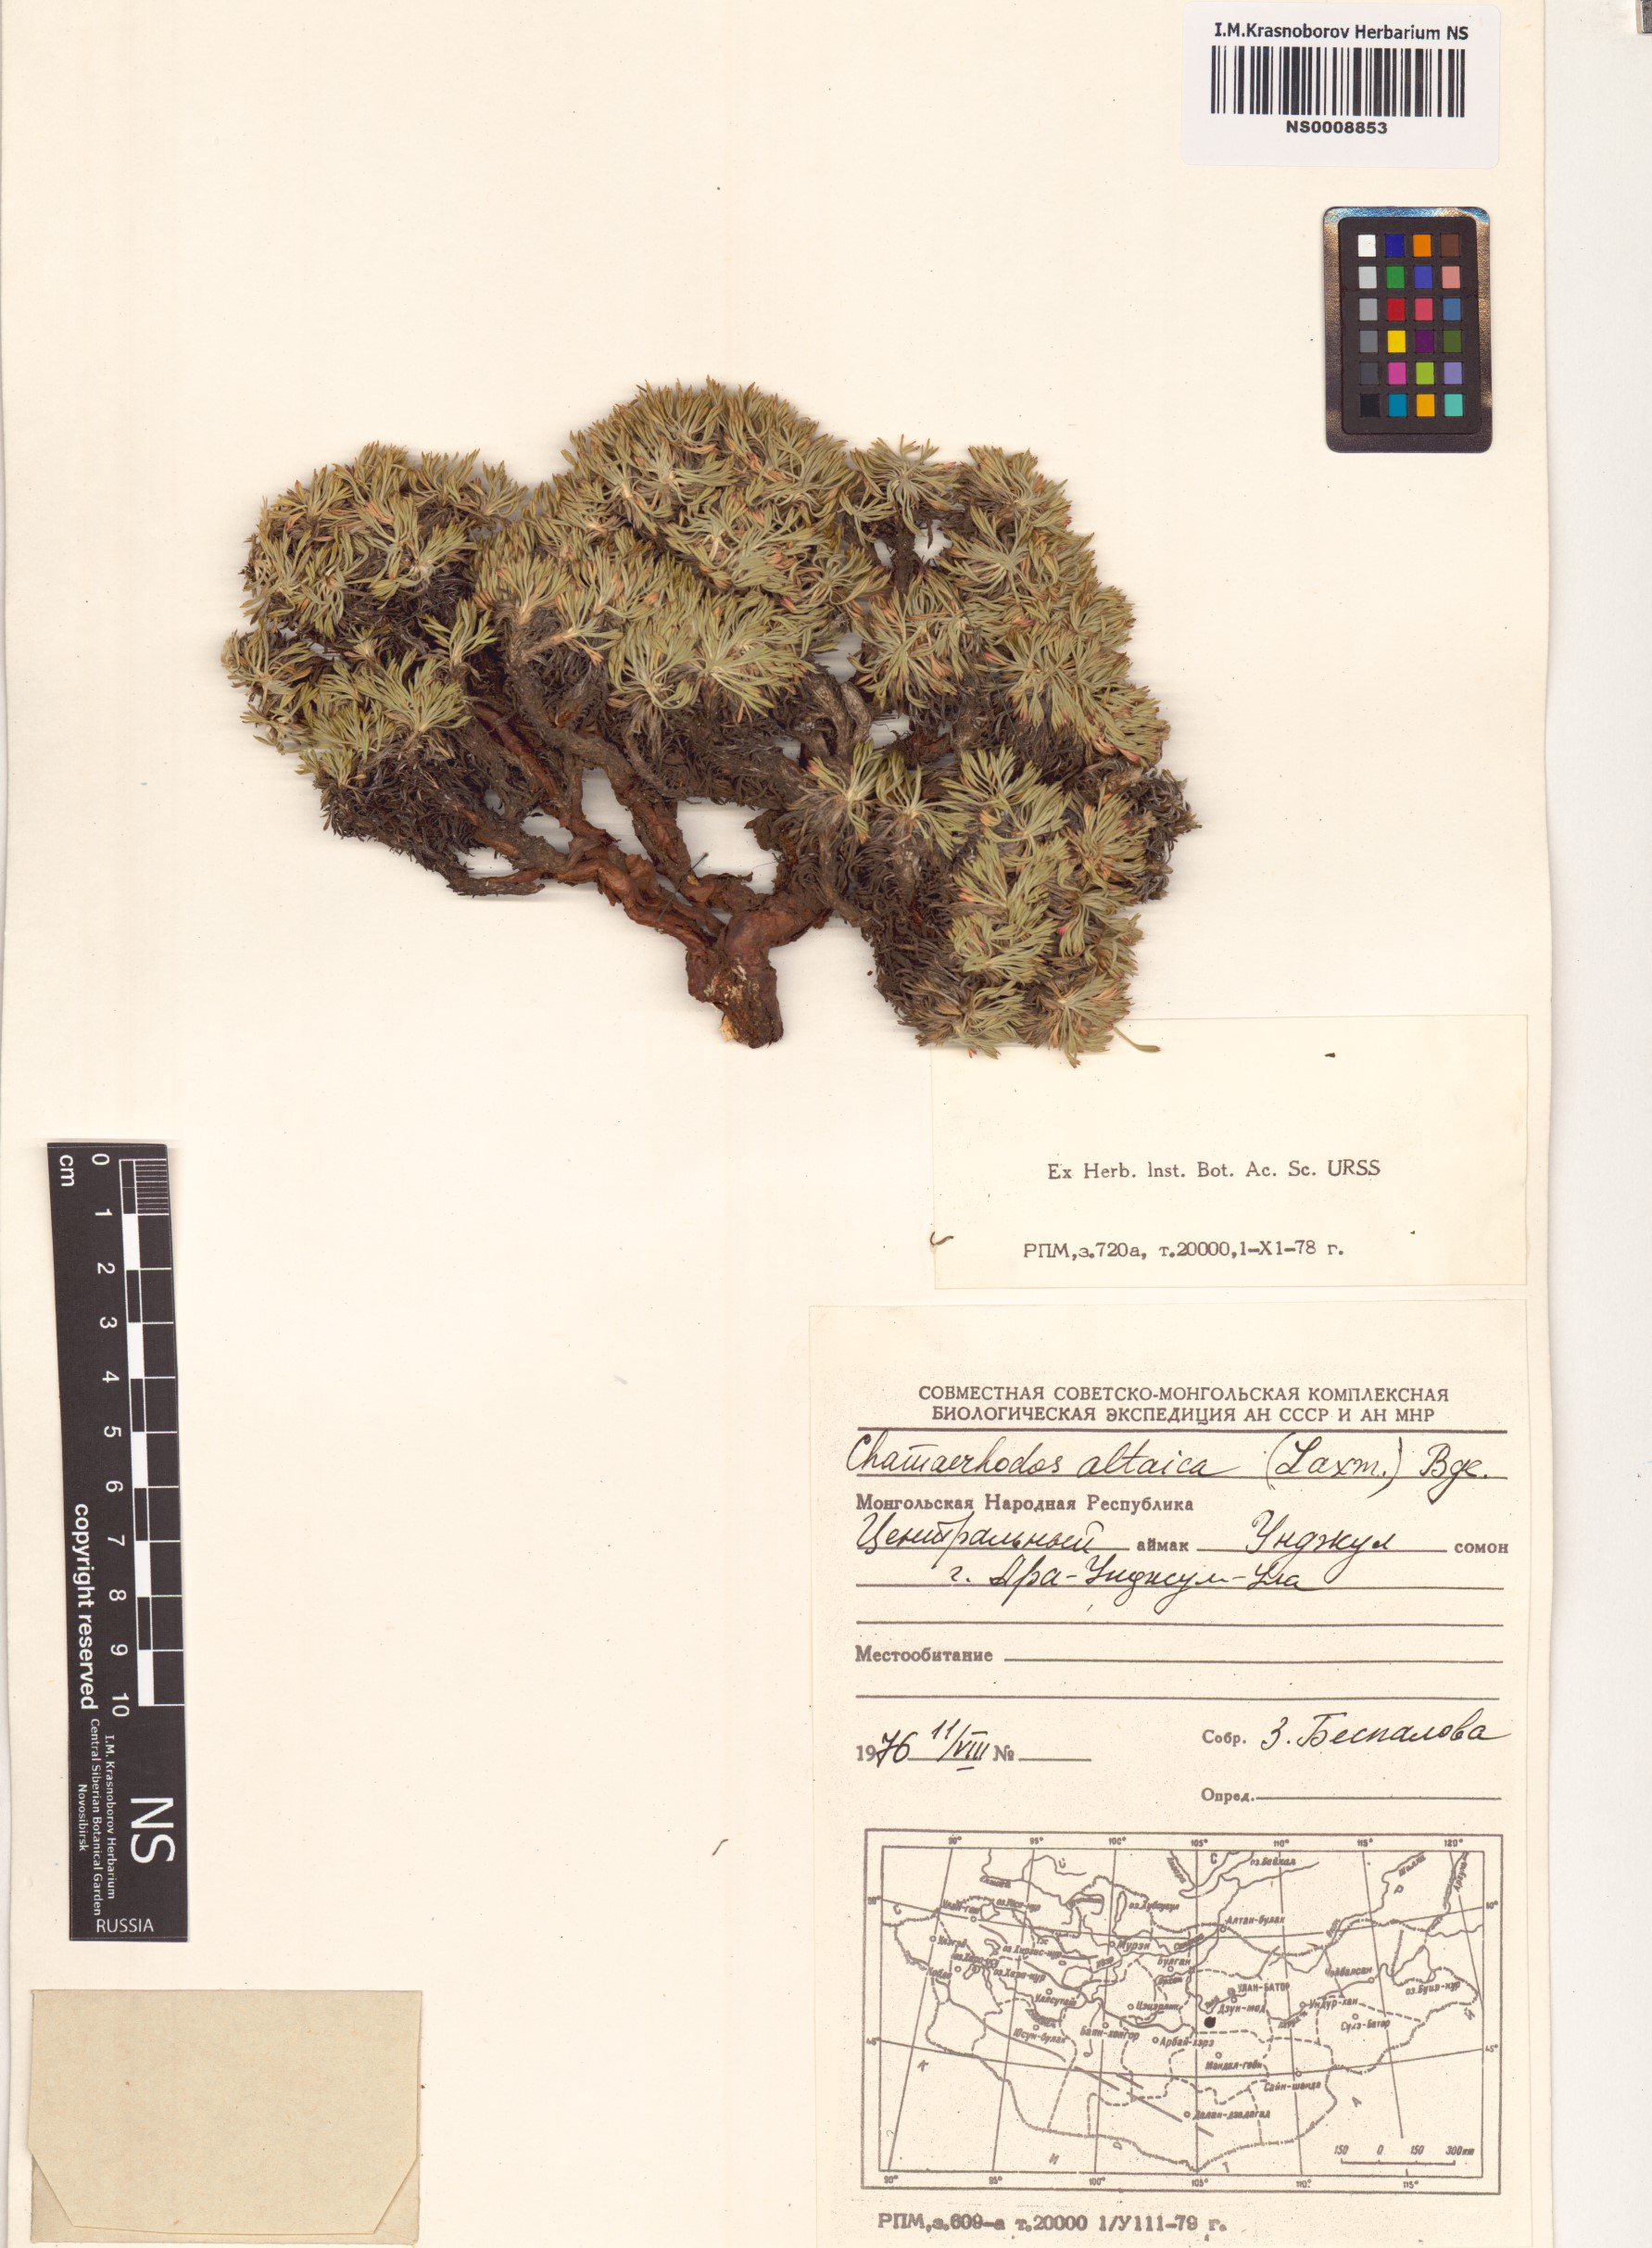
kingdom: Plantae
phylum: Tracheophyta
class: Magnoliopsida
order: Rosales
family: Rosaceae
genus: Chamaerhodos
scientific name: Chamaerhodos altaica
